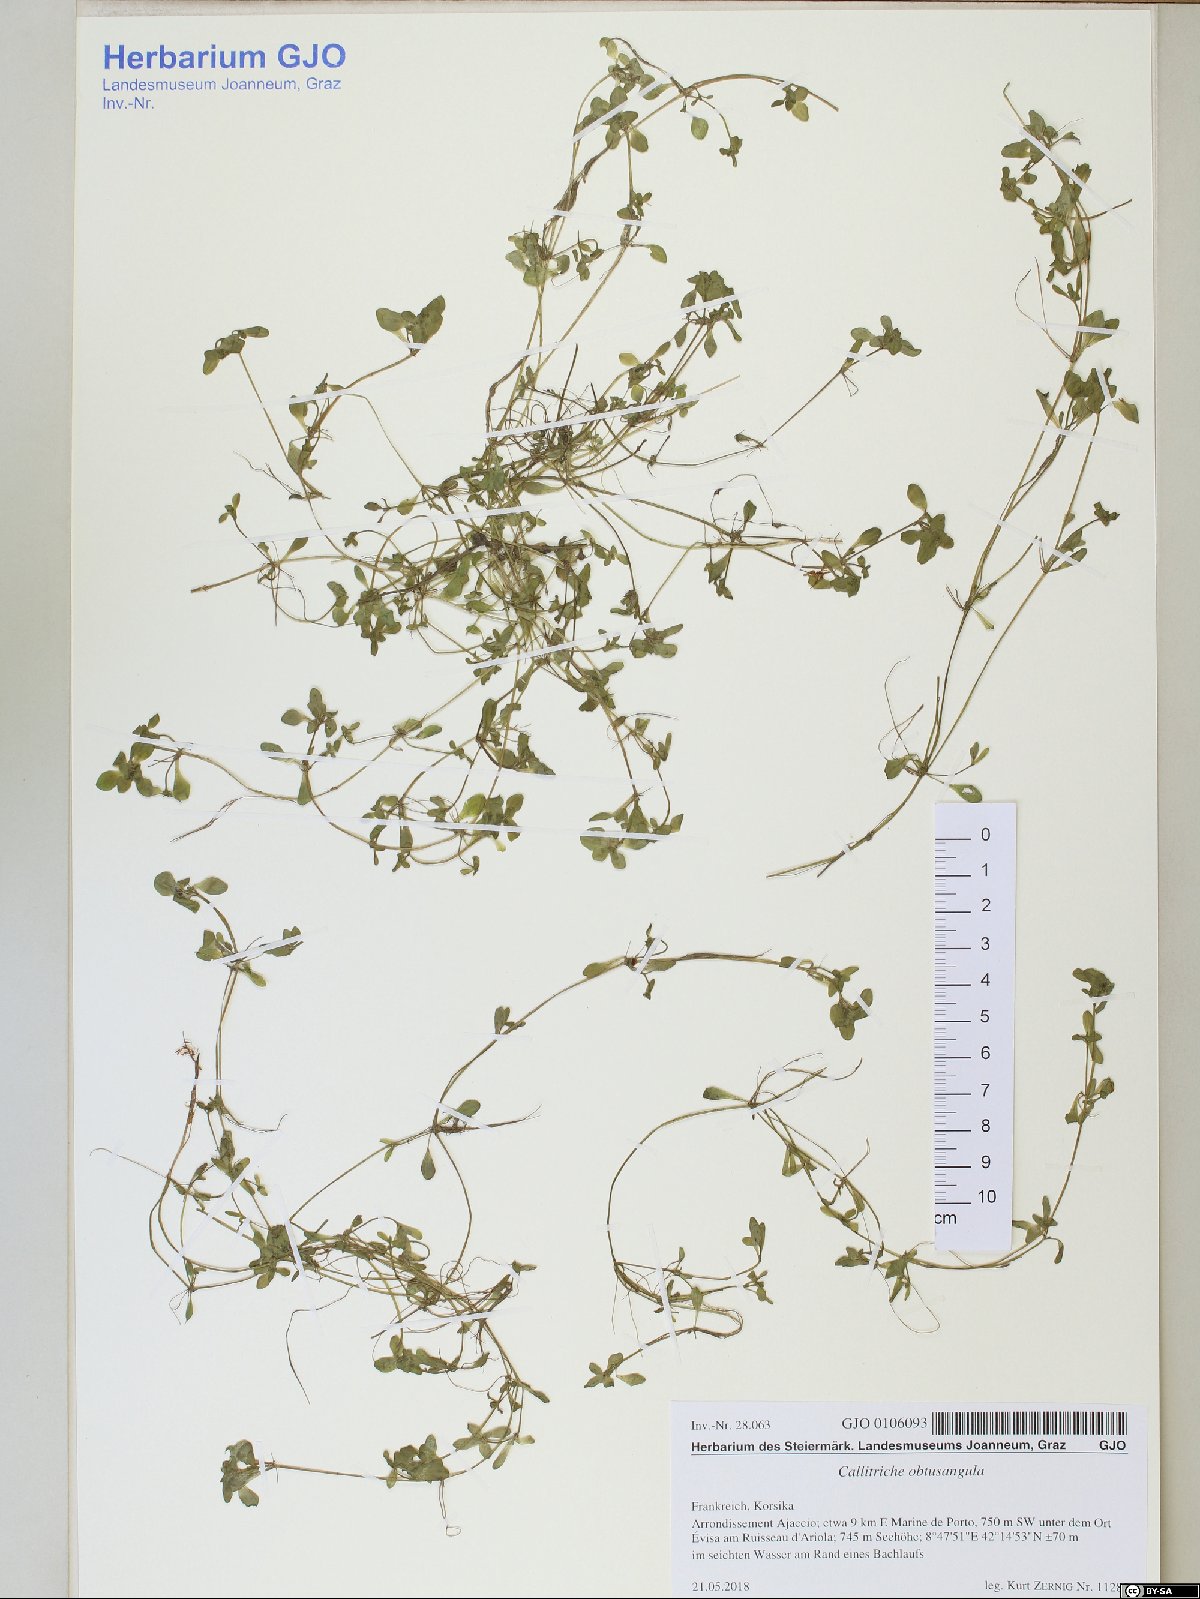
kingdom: Plantae
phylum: Tracheophyta
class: Magnoliopsida
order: Lamiales
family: Plantaginaceae
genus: Callitriche
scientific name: Callitriche obtusangula
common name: Blunt-fruited water-starwort
